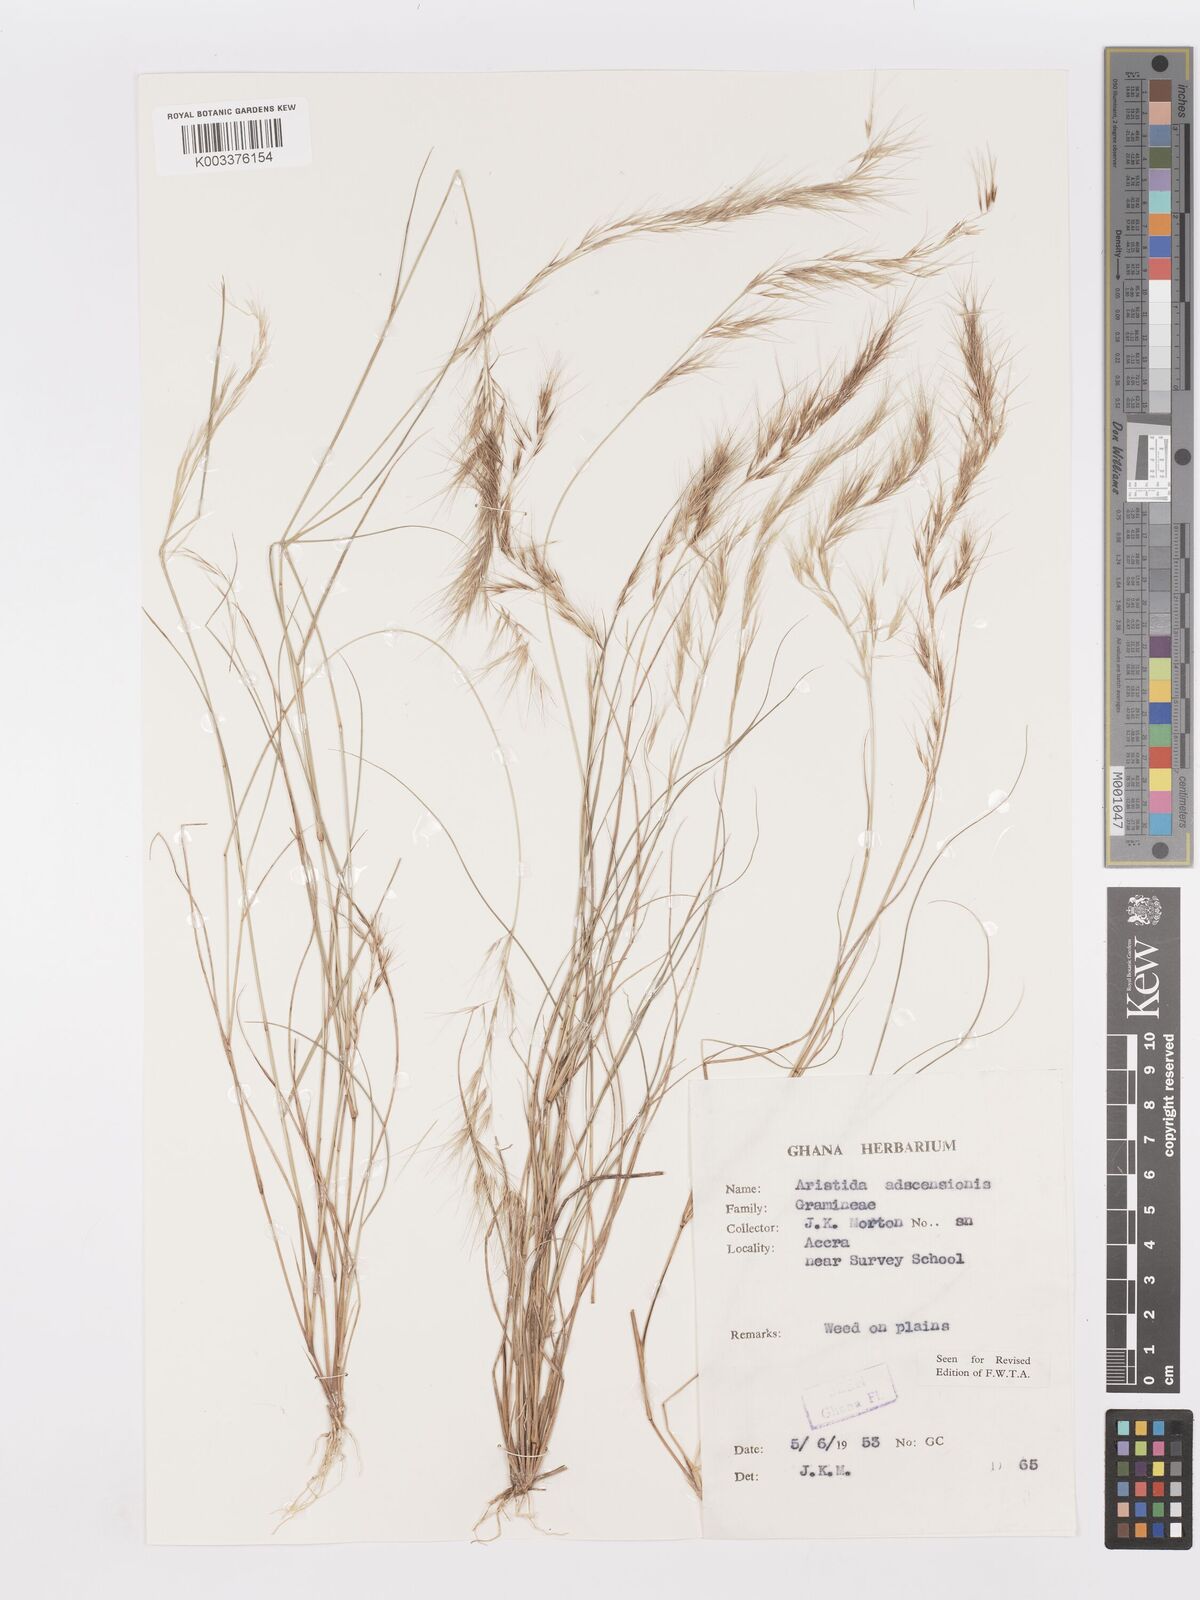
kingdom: Plantae
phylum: Tracheophyta
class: Liliopsida
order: Poales
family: Poaceae
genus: Aristida
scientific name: Aristida adscensionis
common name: Sixweeks threeawn
